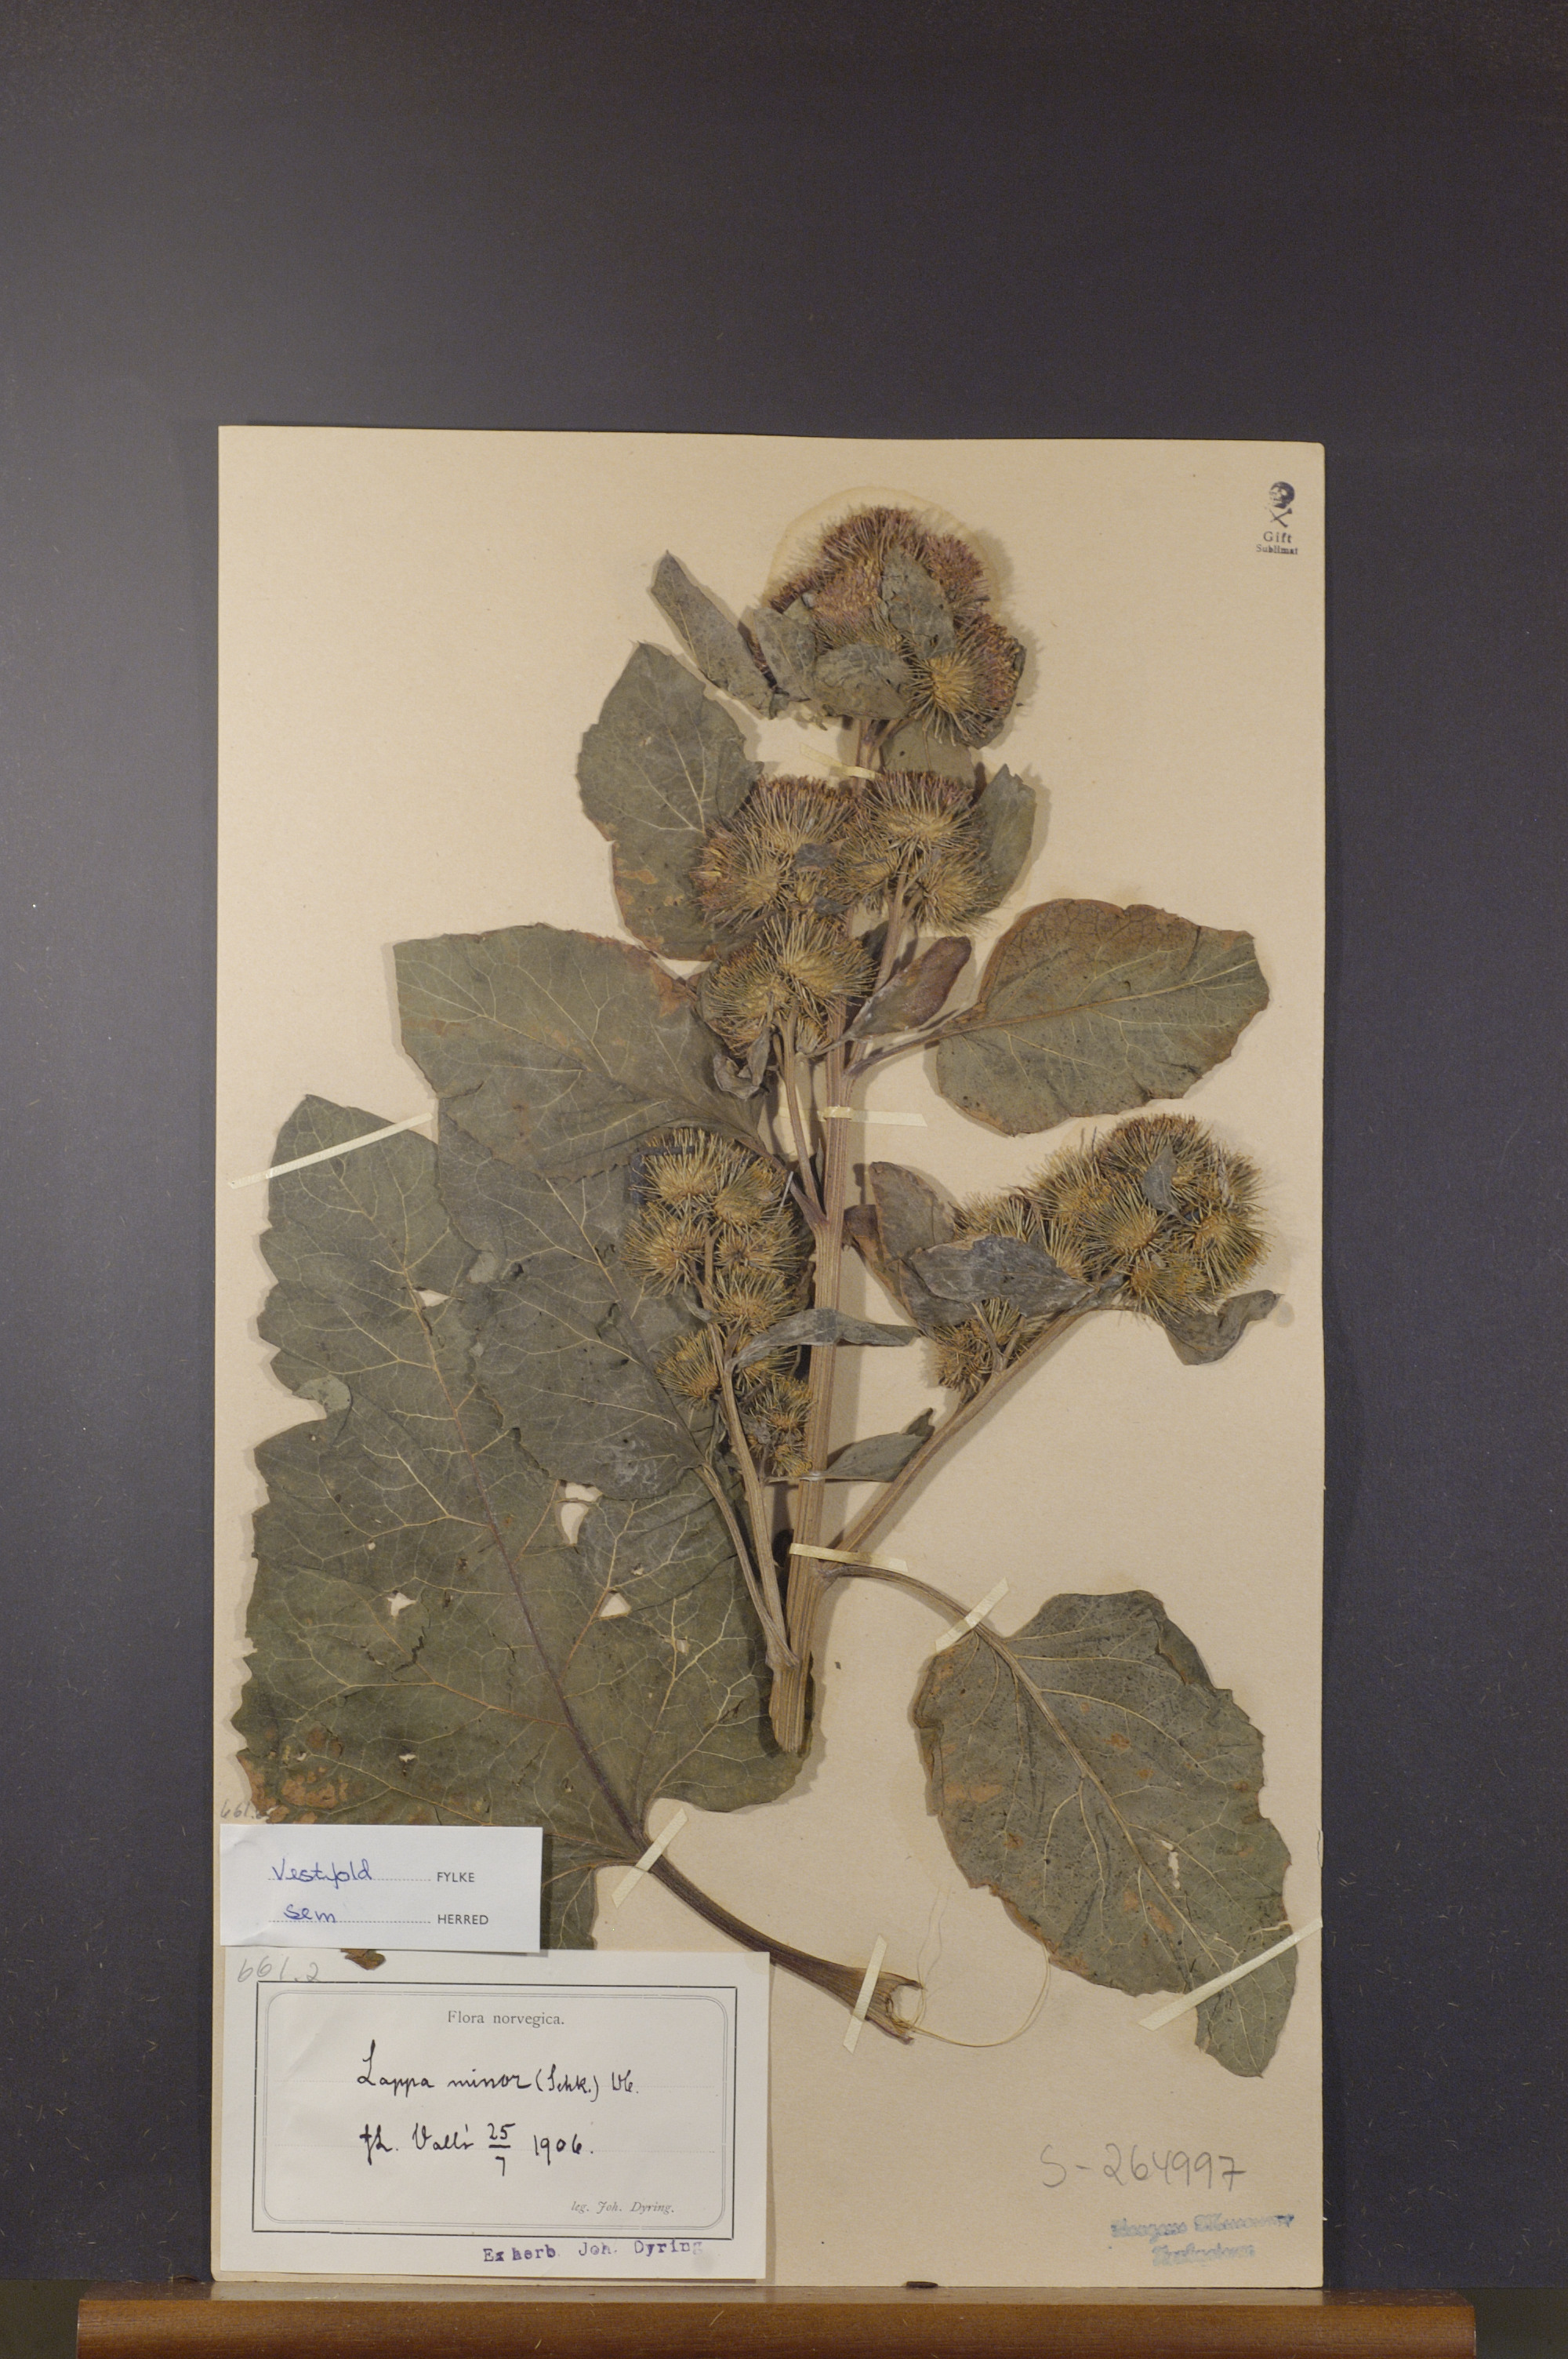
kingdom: Plantae
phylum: Tracheophyta
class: Magnoliopsida
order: Asterales
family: Asteraceae
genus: Arctium
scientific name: Arctium minus
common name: Lesser burdock
